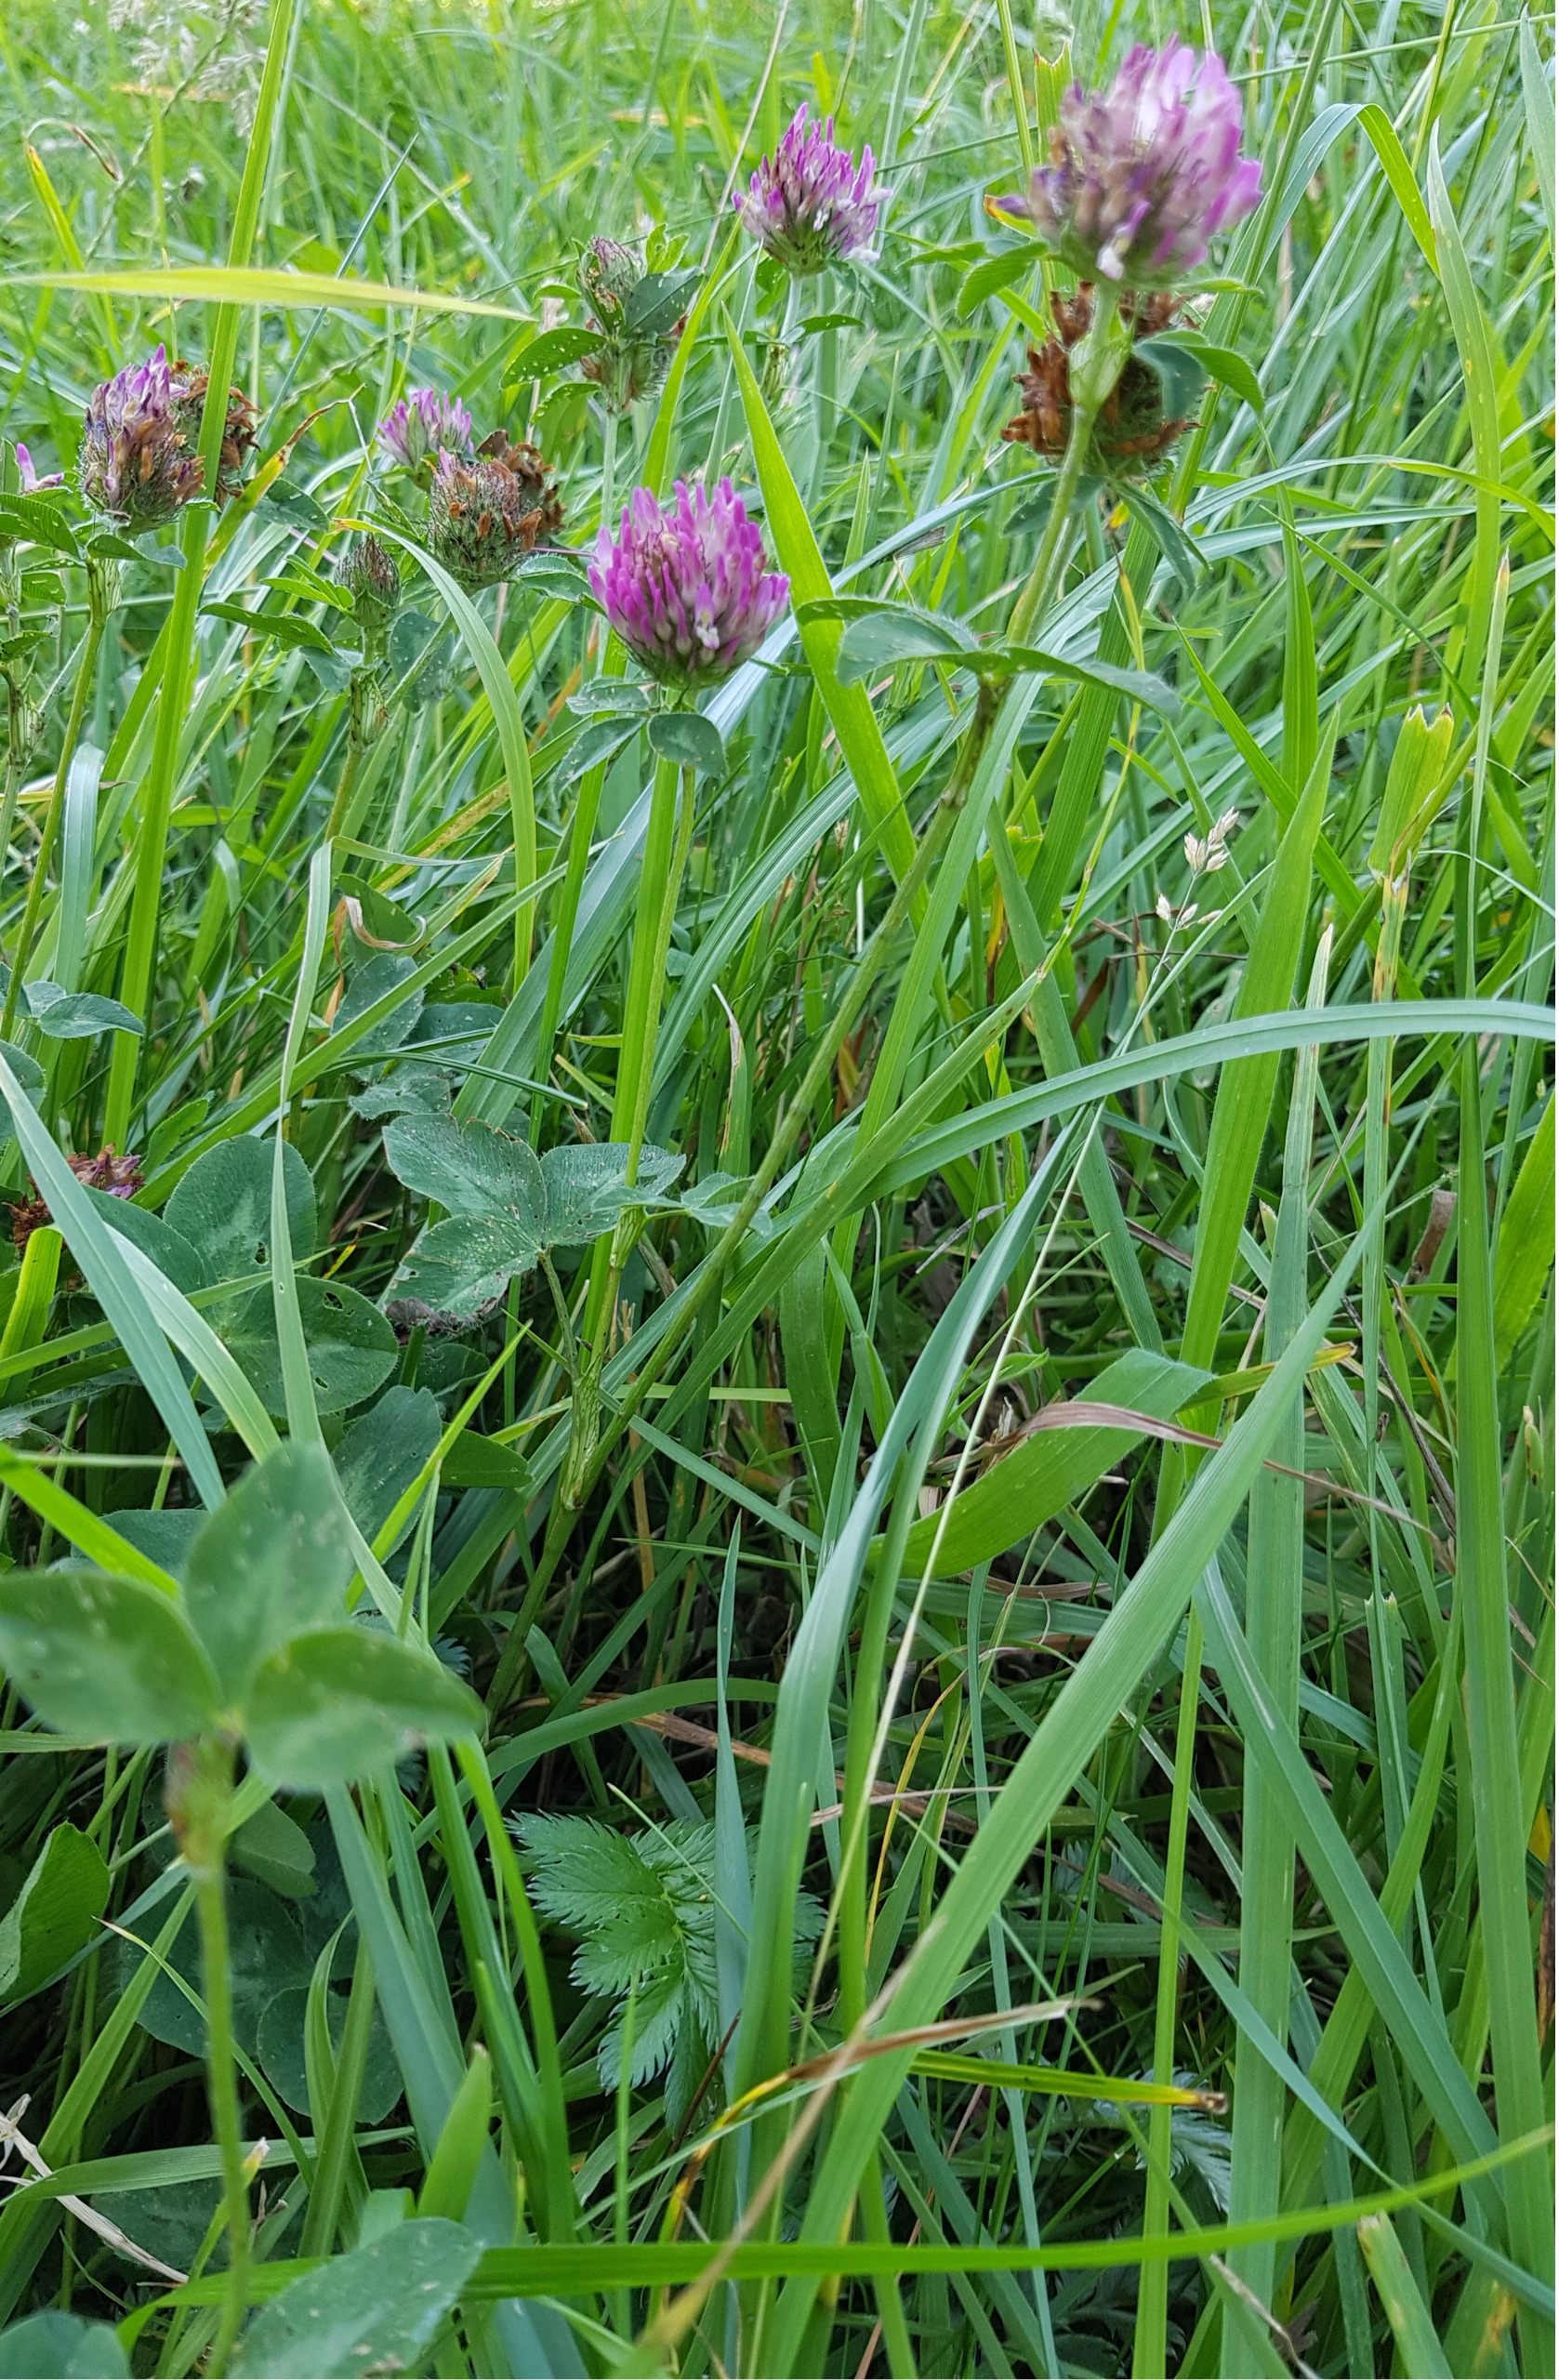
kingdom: Plantae
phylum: Tracheophyta
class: Magnoliopsida
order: Fabales
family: Fabaceae
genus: Trifolium
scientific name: Trifolium pratense
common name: Rød-kløver
